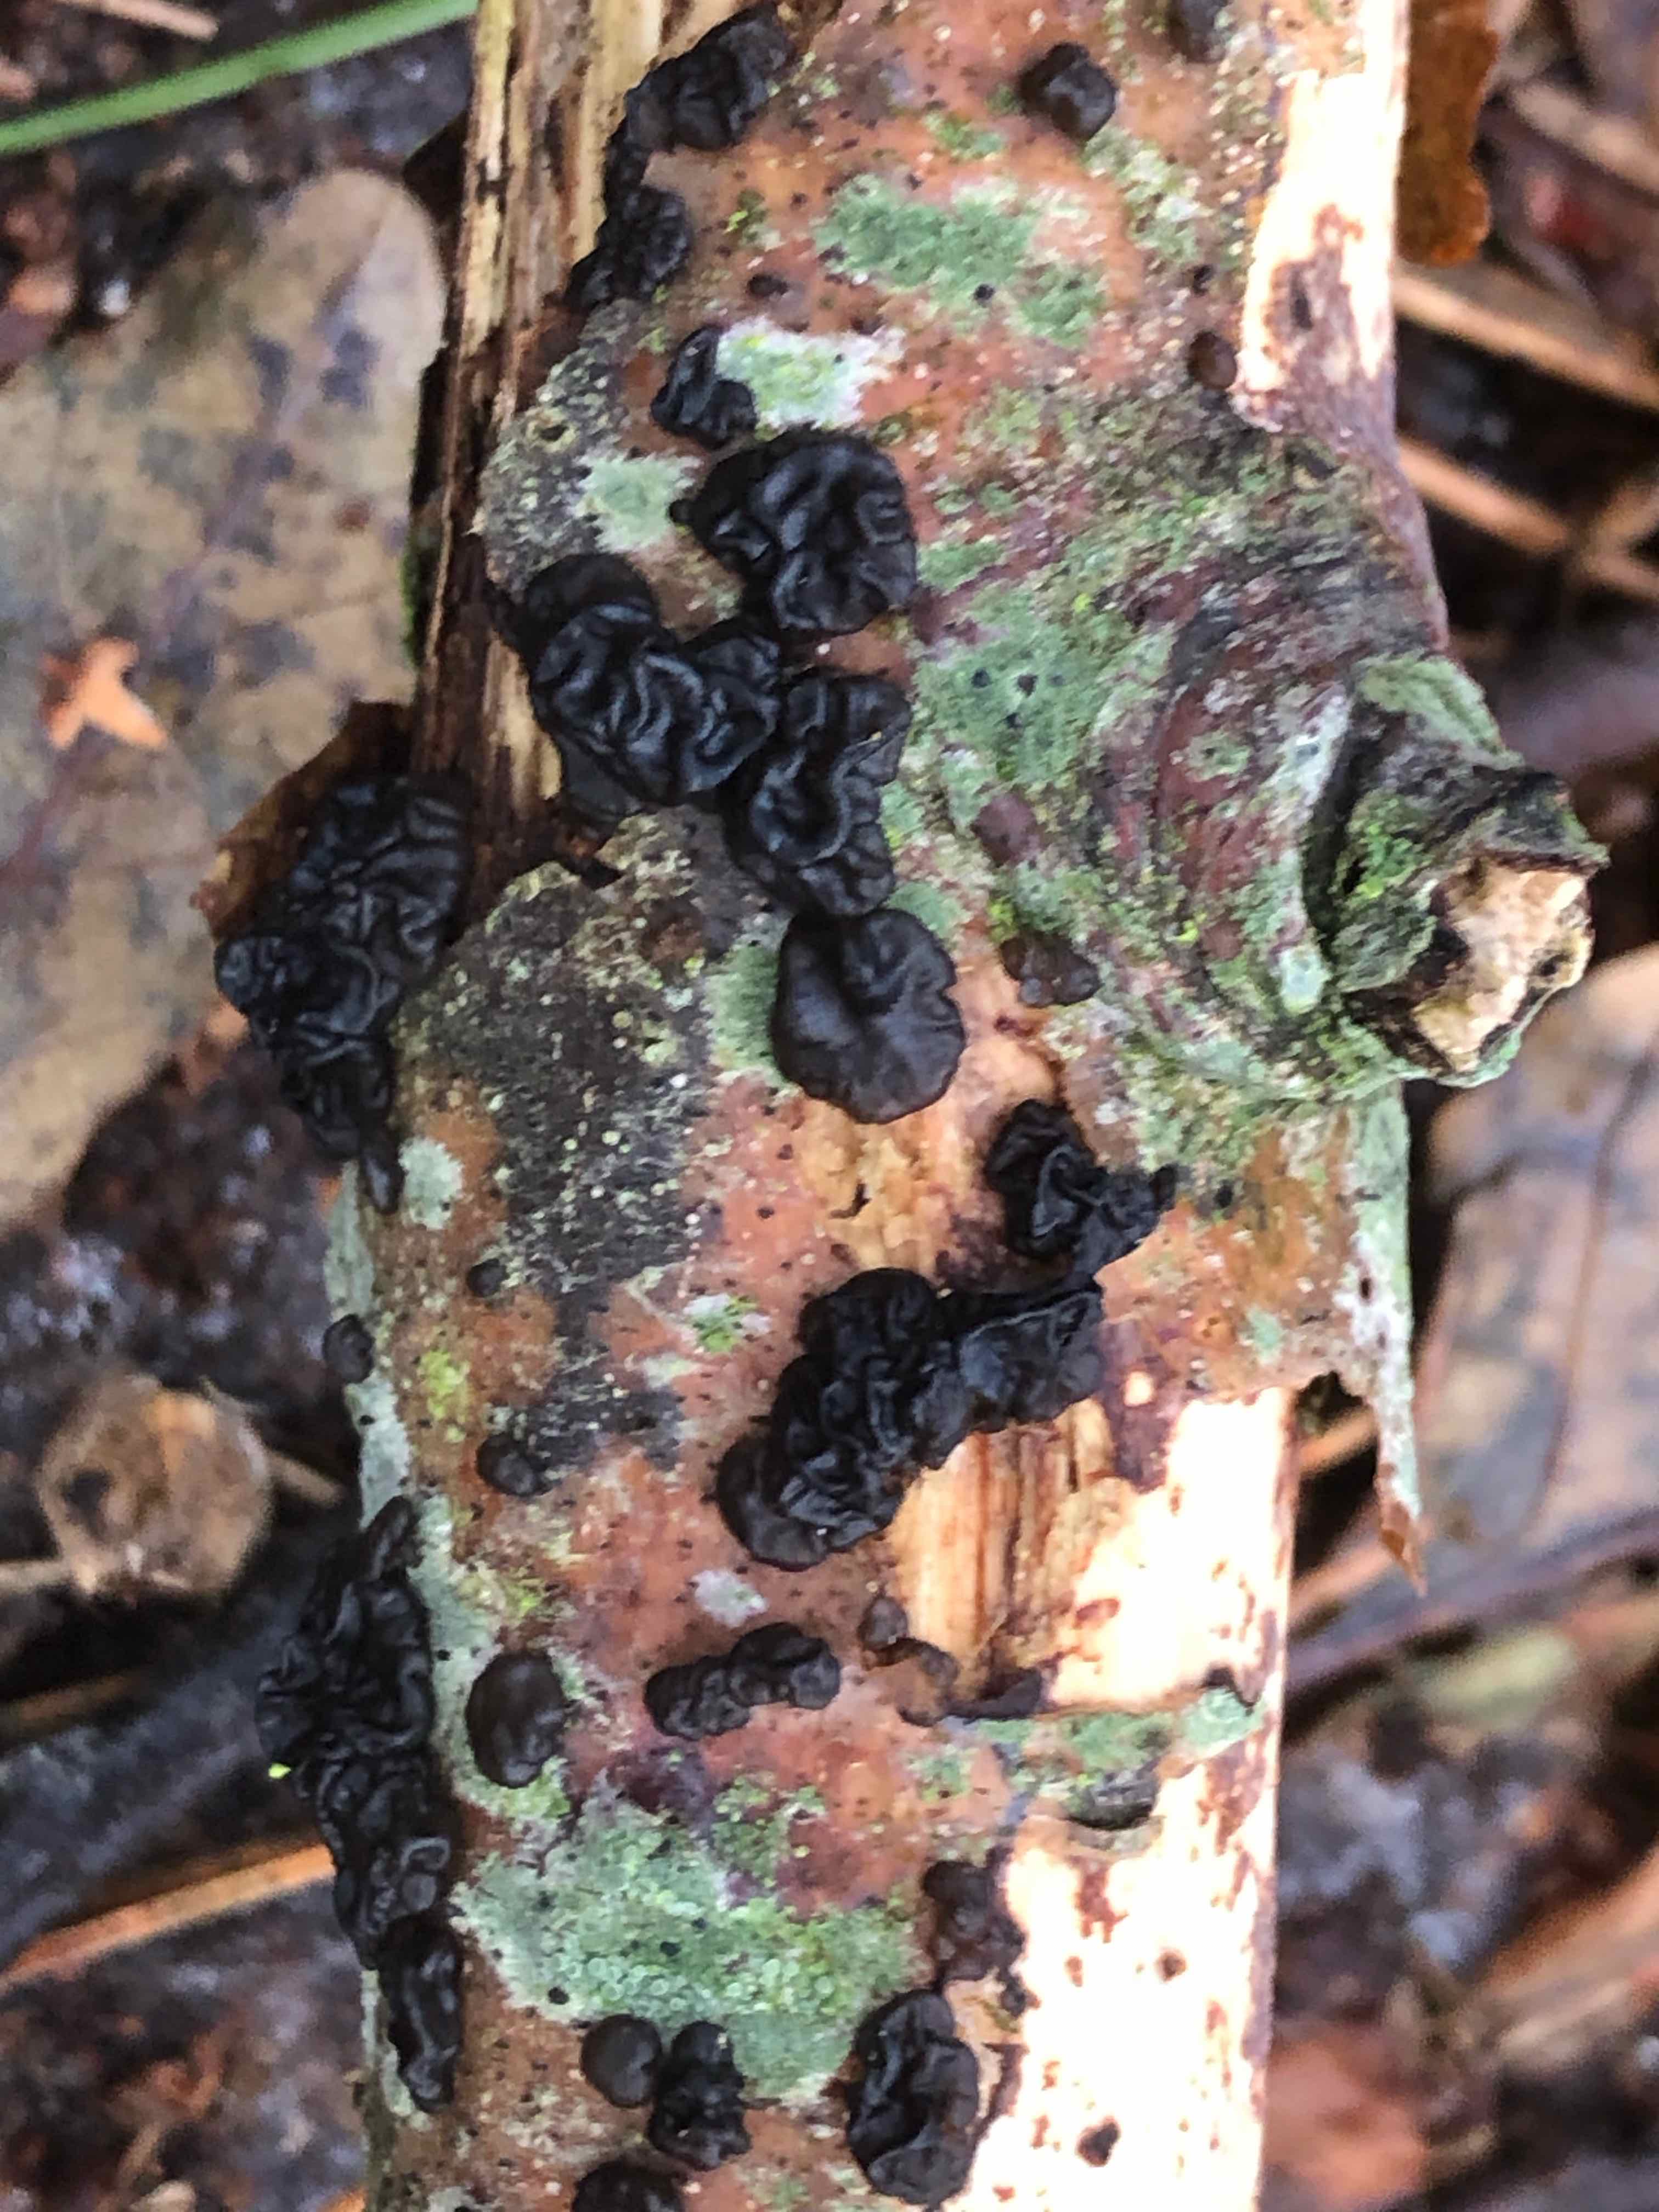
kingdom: Fungi
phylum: Basidiomycota
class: Agaricomycetes
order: Auriculariales
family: Auriculariaceae
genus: Exidia
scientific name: Exidia nigricans
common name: almindelig bævretop
